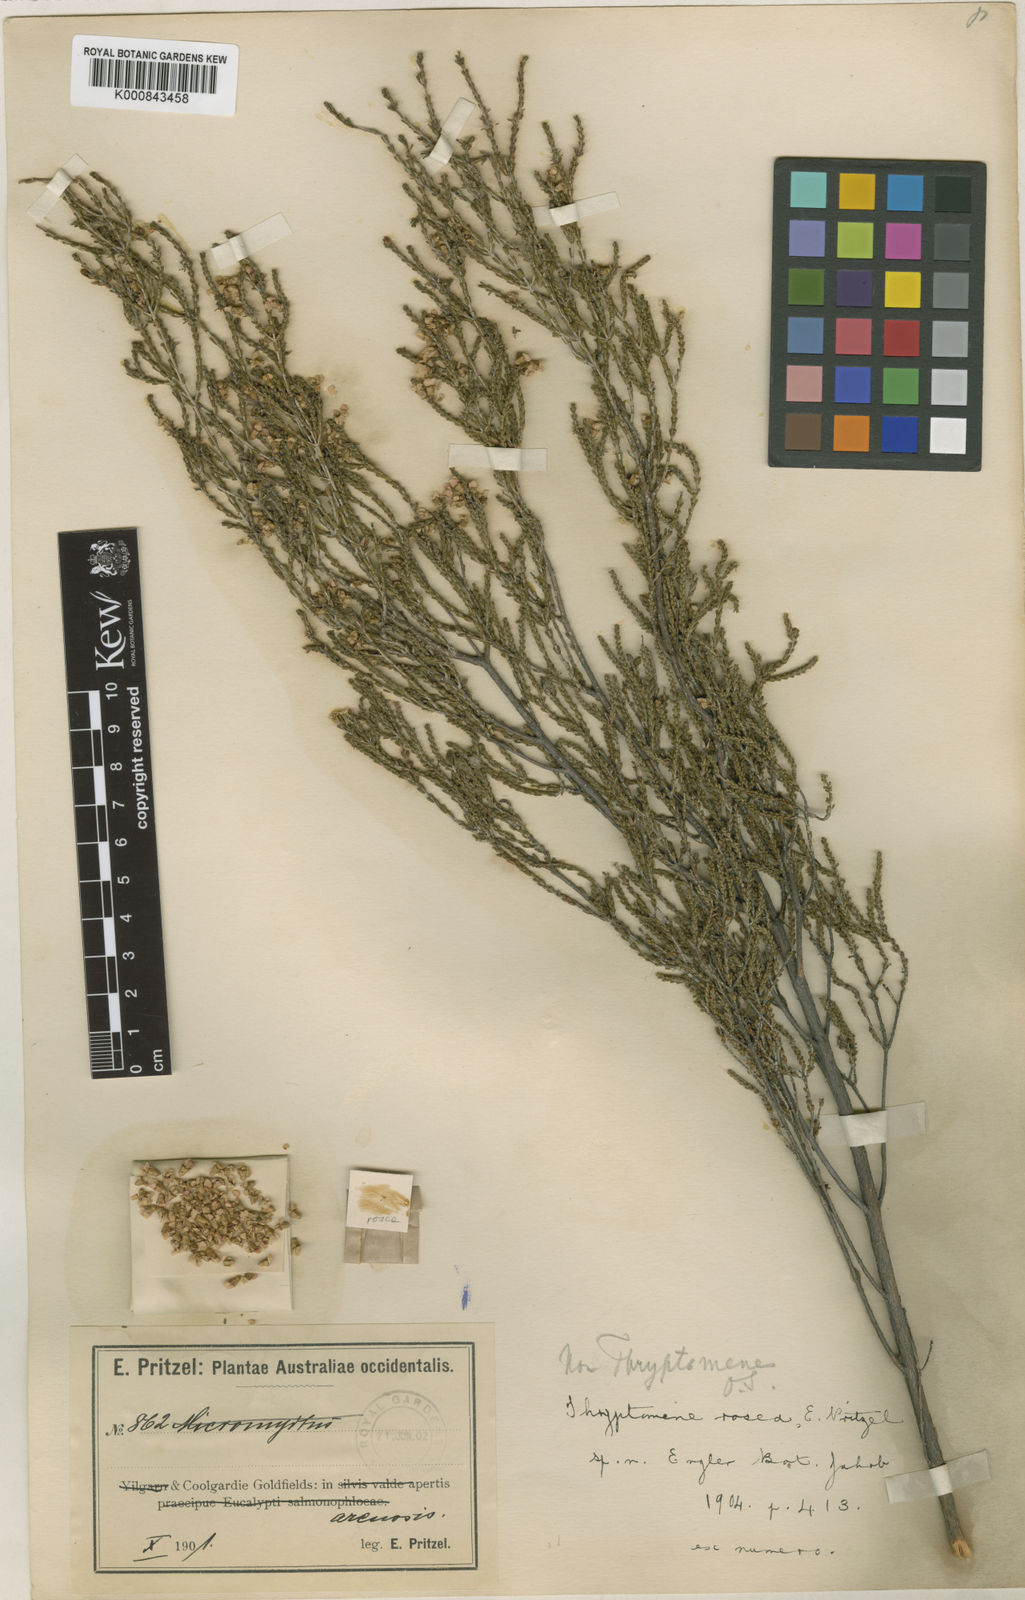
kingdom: Plantae
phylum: Tracheophyta
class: Magnoliopsida
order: Myrtales
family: Myrtaceae
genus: Malleostemon
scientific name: Malleostemon roseus
